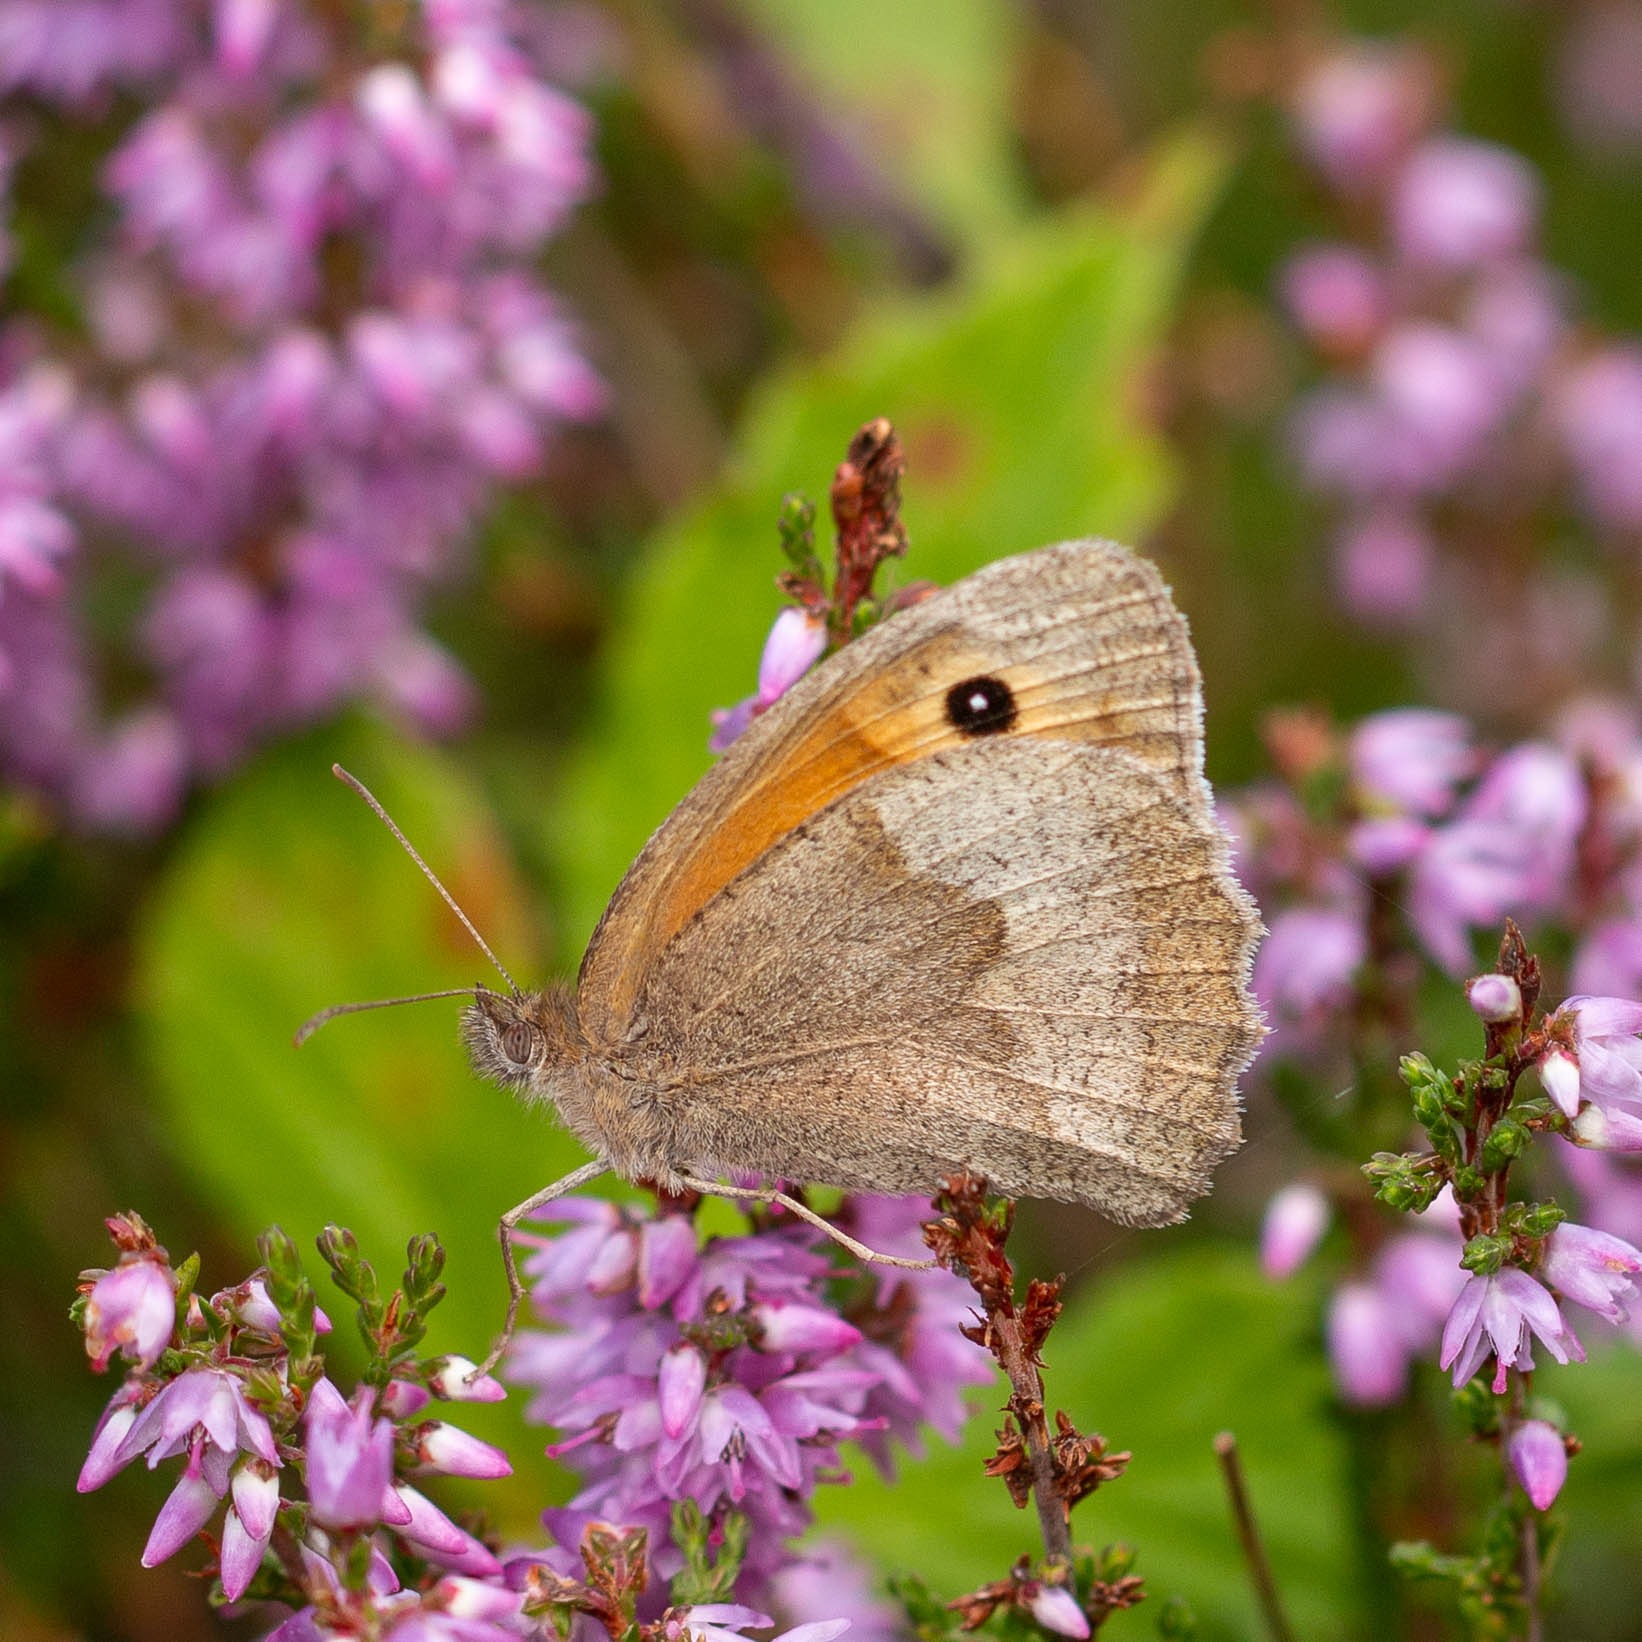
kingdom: Animalia
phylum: Arthropoda
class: Insecta
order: Lepidoptera
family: Nymphalidae
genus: Maniola
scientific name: Maniola jurtina
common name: Græsrandøje
